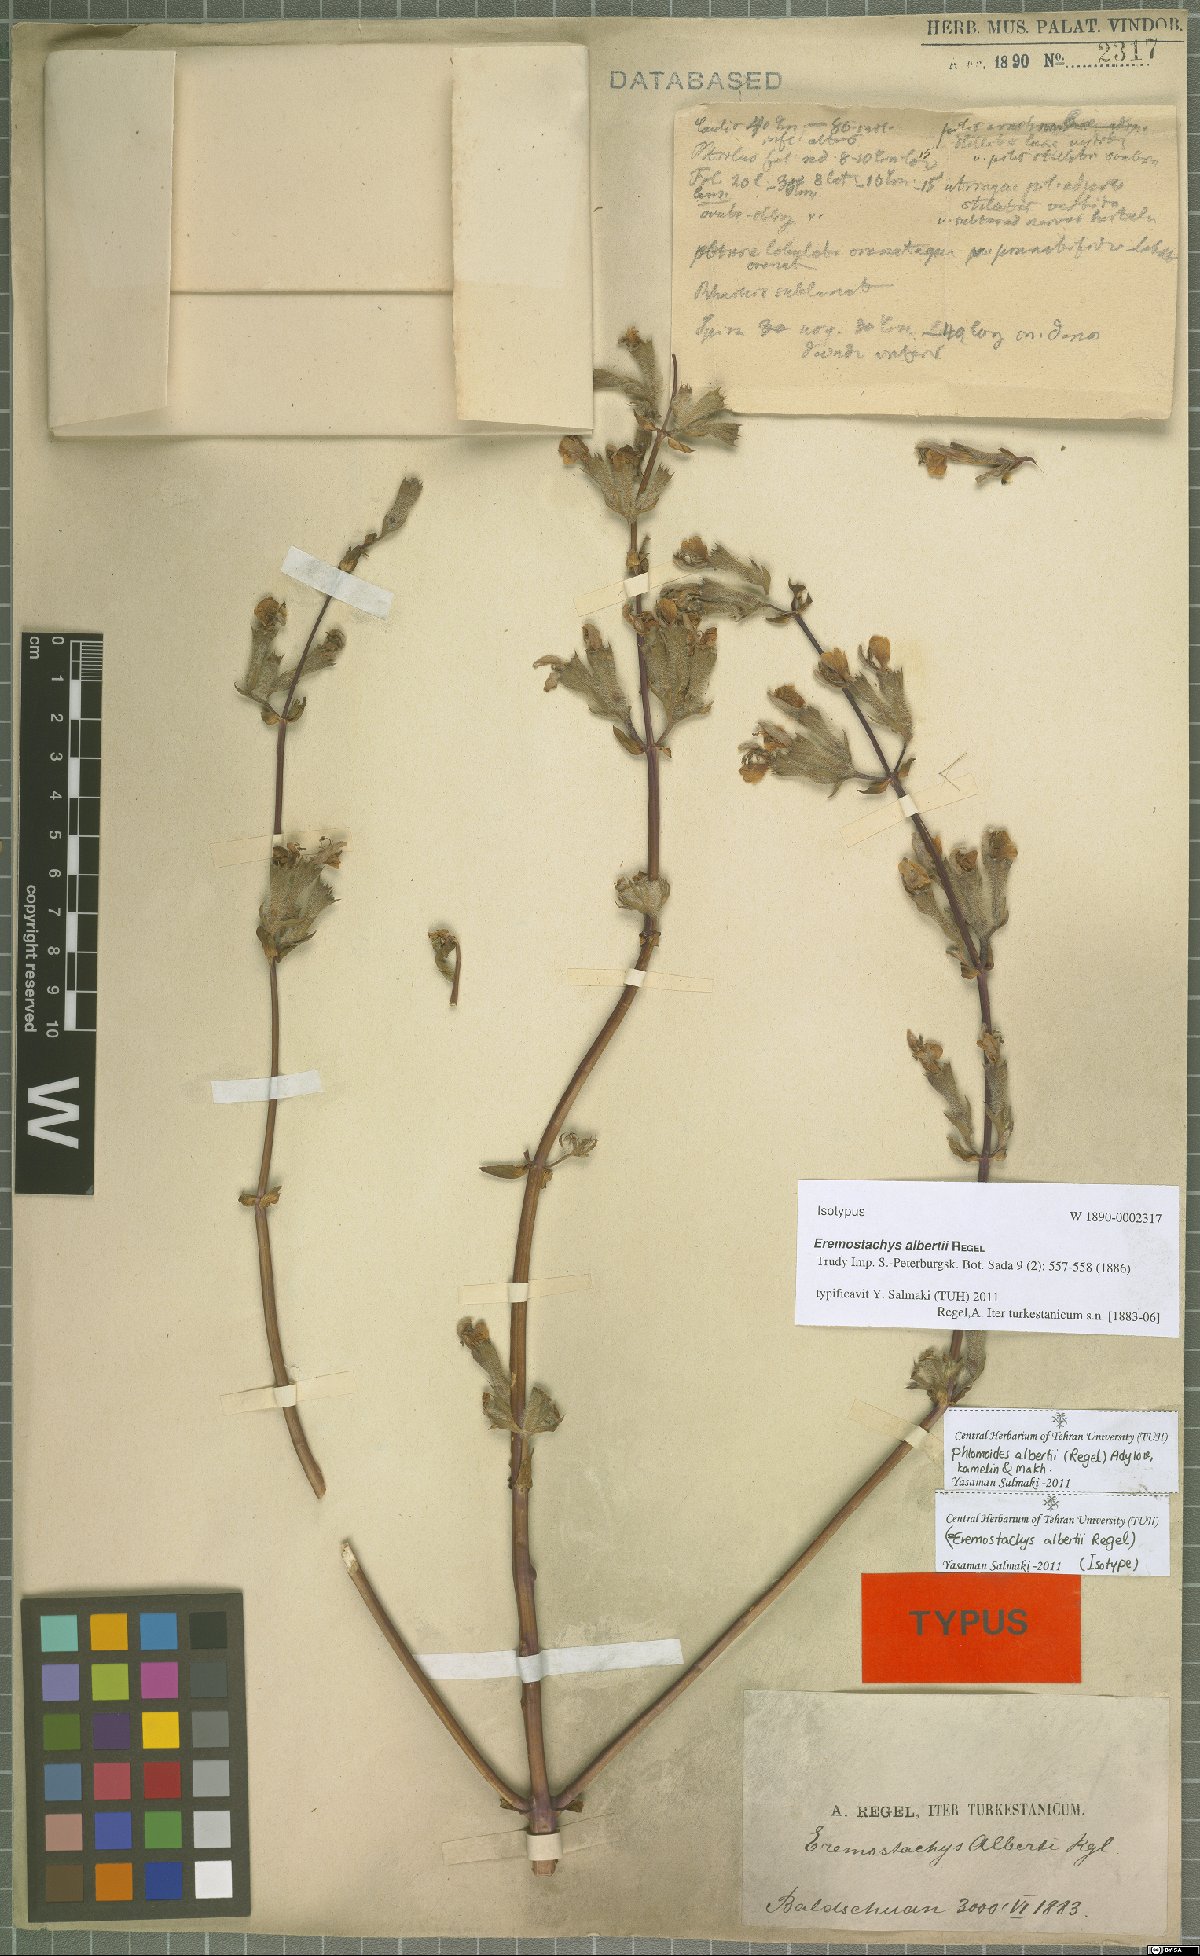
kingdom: Plantae
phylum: Tracheophyta
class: Magnoliopsida
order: Lamiales
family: Lamiaceae
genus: Phlomoides
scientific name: Phlomoides alberti
